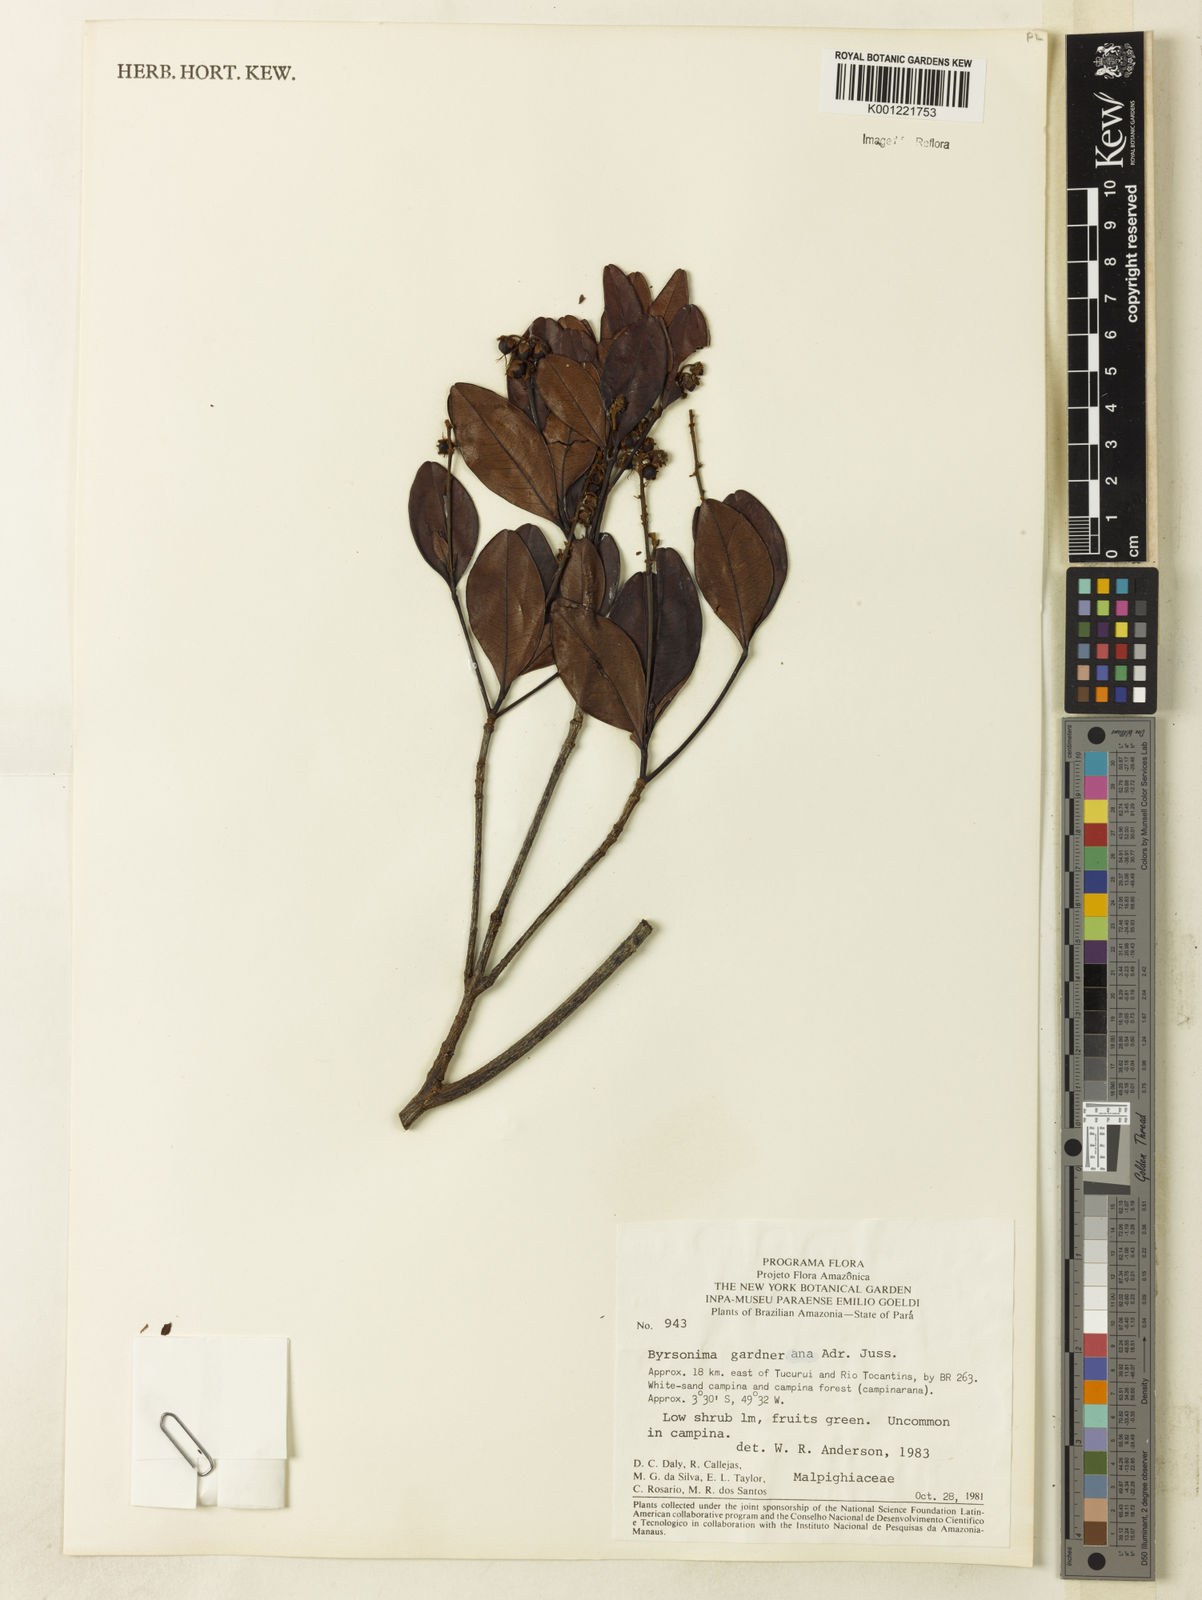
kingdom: Plantae
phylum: Tracheophyta
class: Magnoliopsida
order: Malpighiales
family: Malpighiaceae
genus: Byrsonima
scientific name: Byrsonima gardneriana
